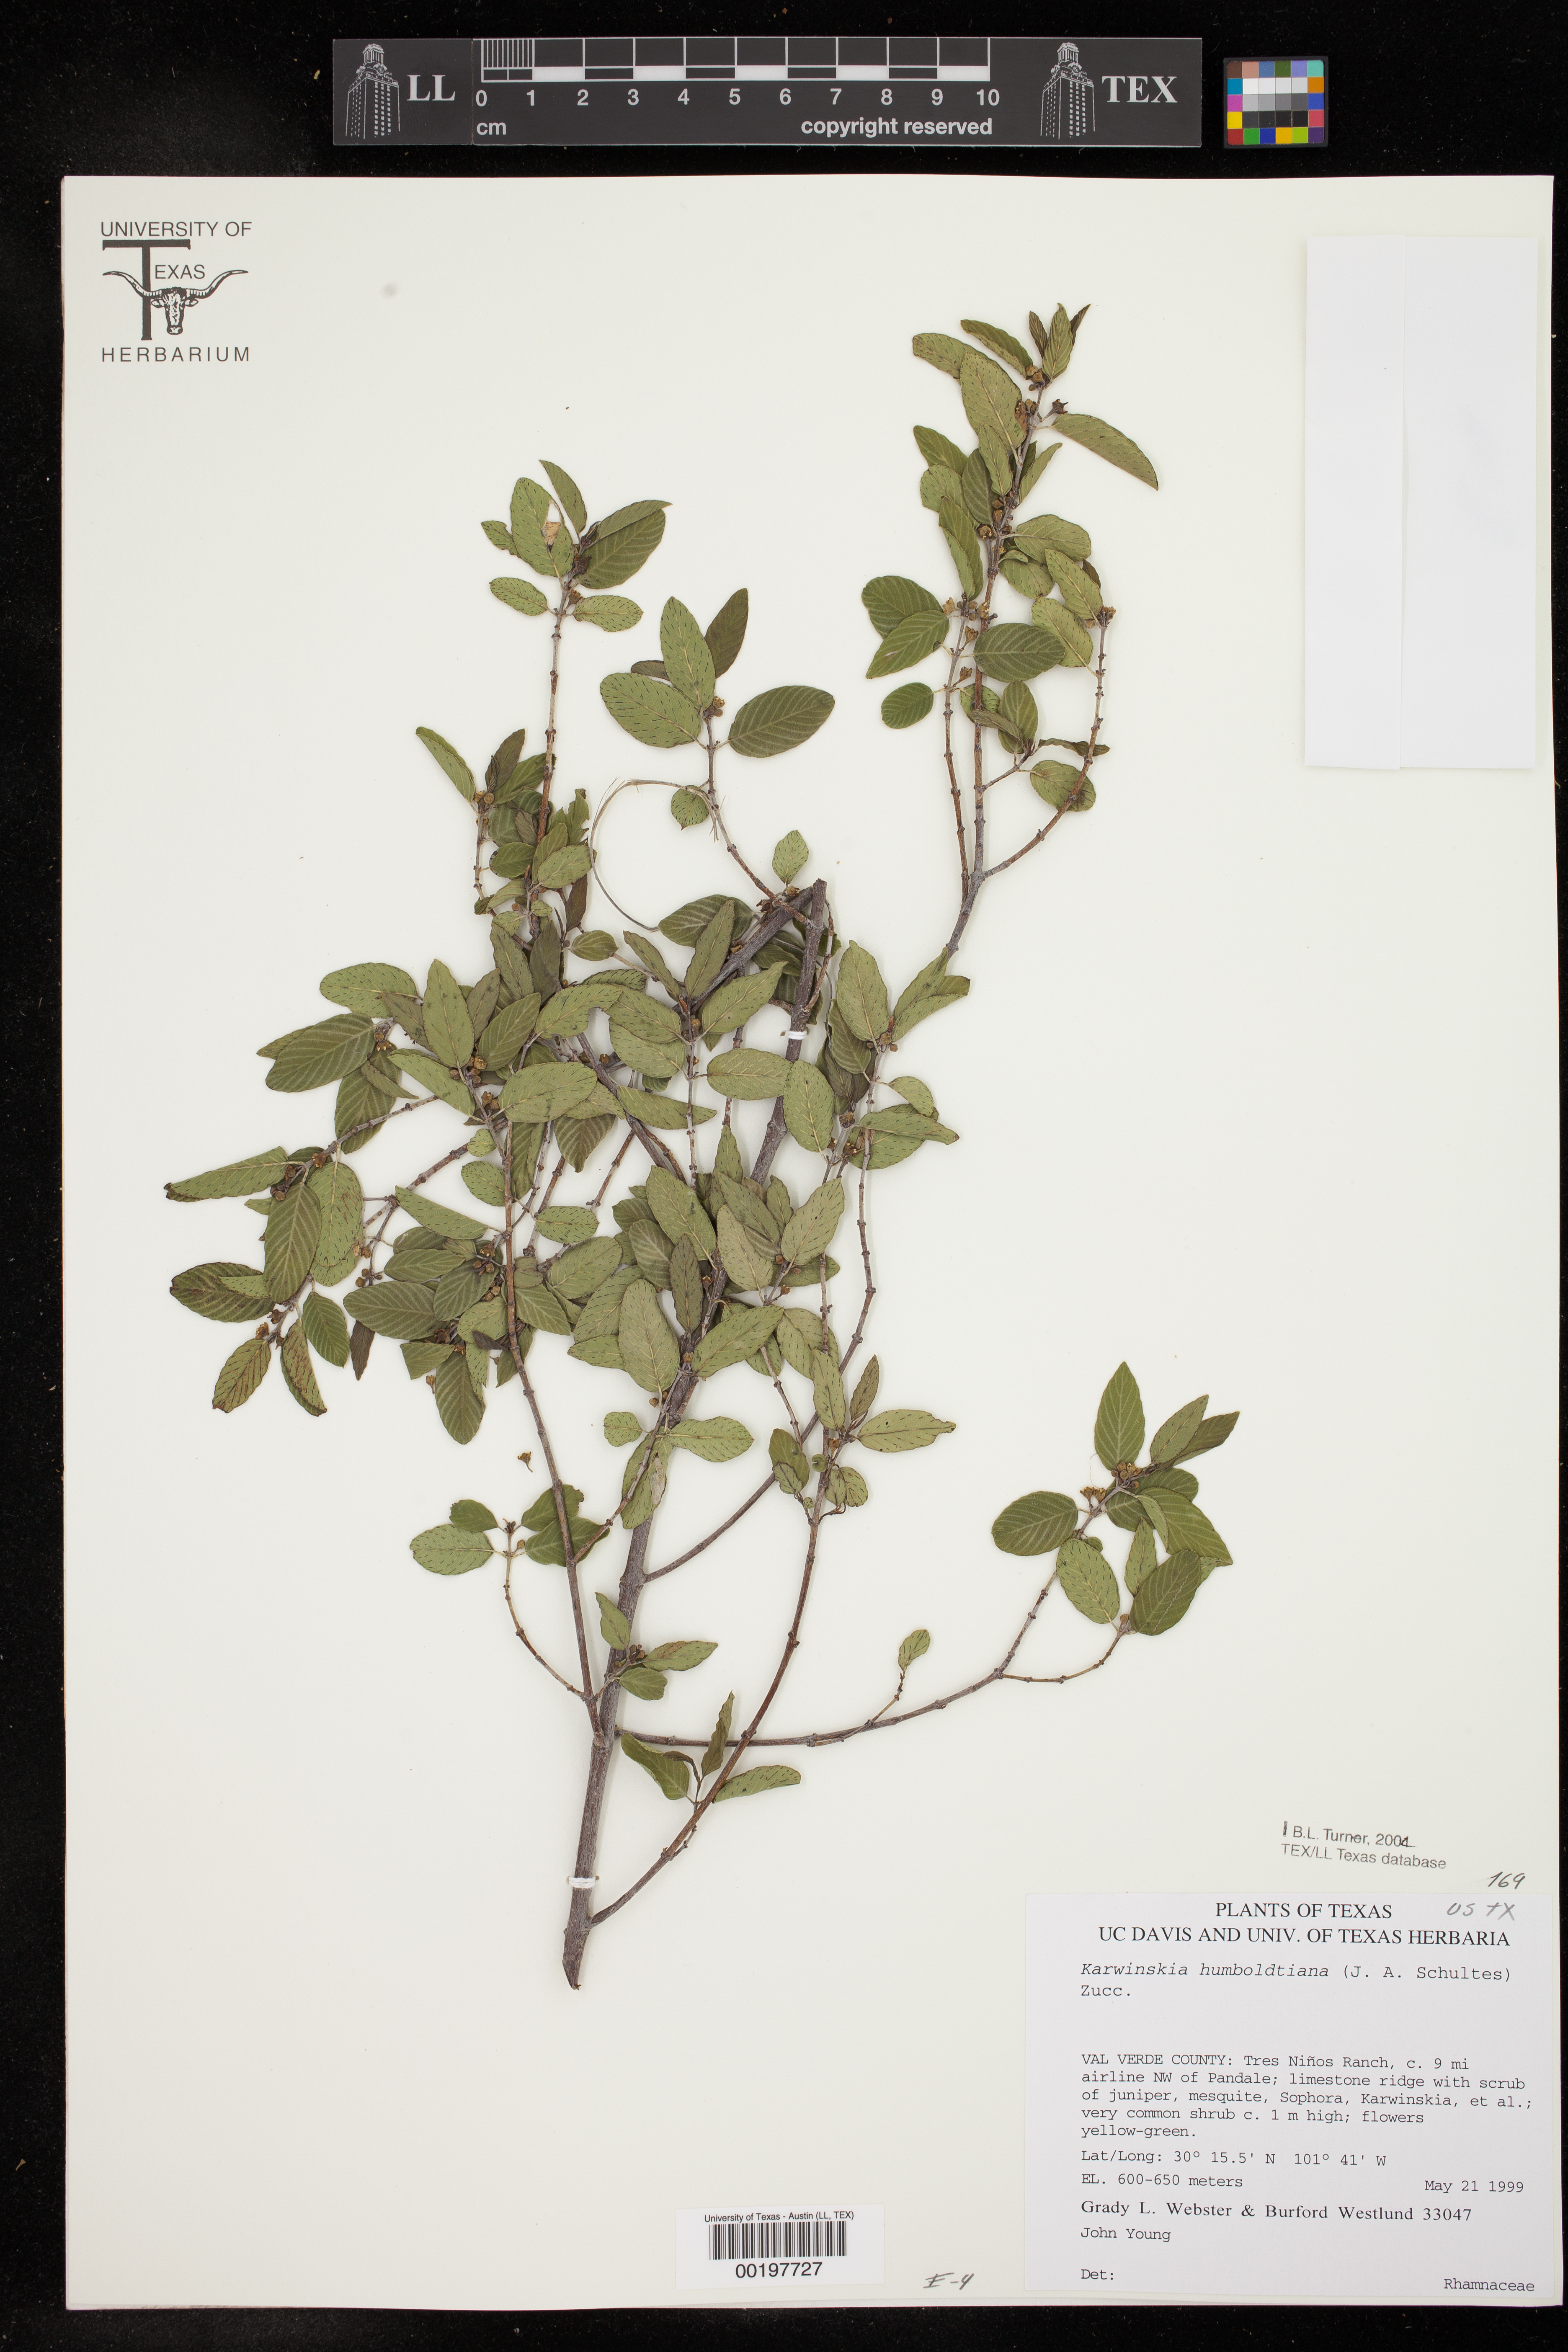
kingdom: Plantae
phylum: Tracheophyta
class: Magnoliopsida
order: Rosales
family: Rhamnaceae
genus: Karwinskia
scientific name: Karwinskia humboldtiana
